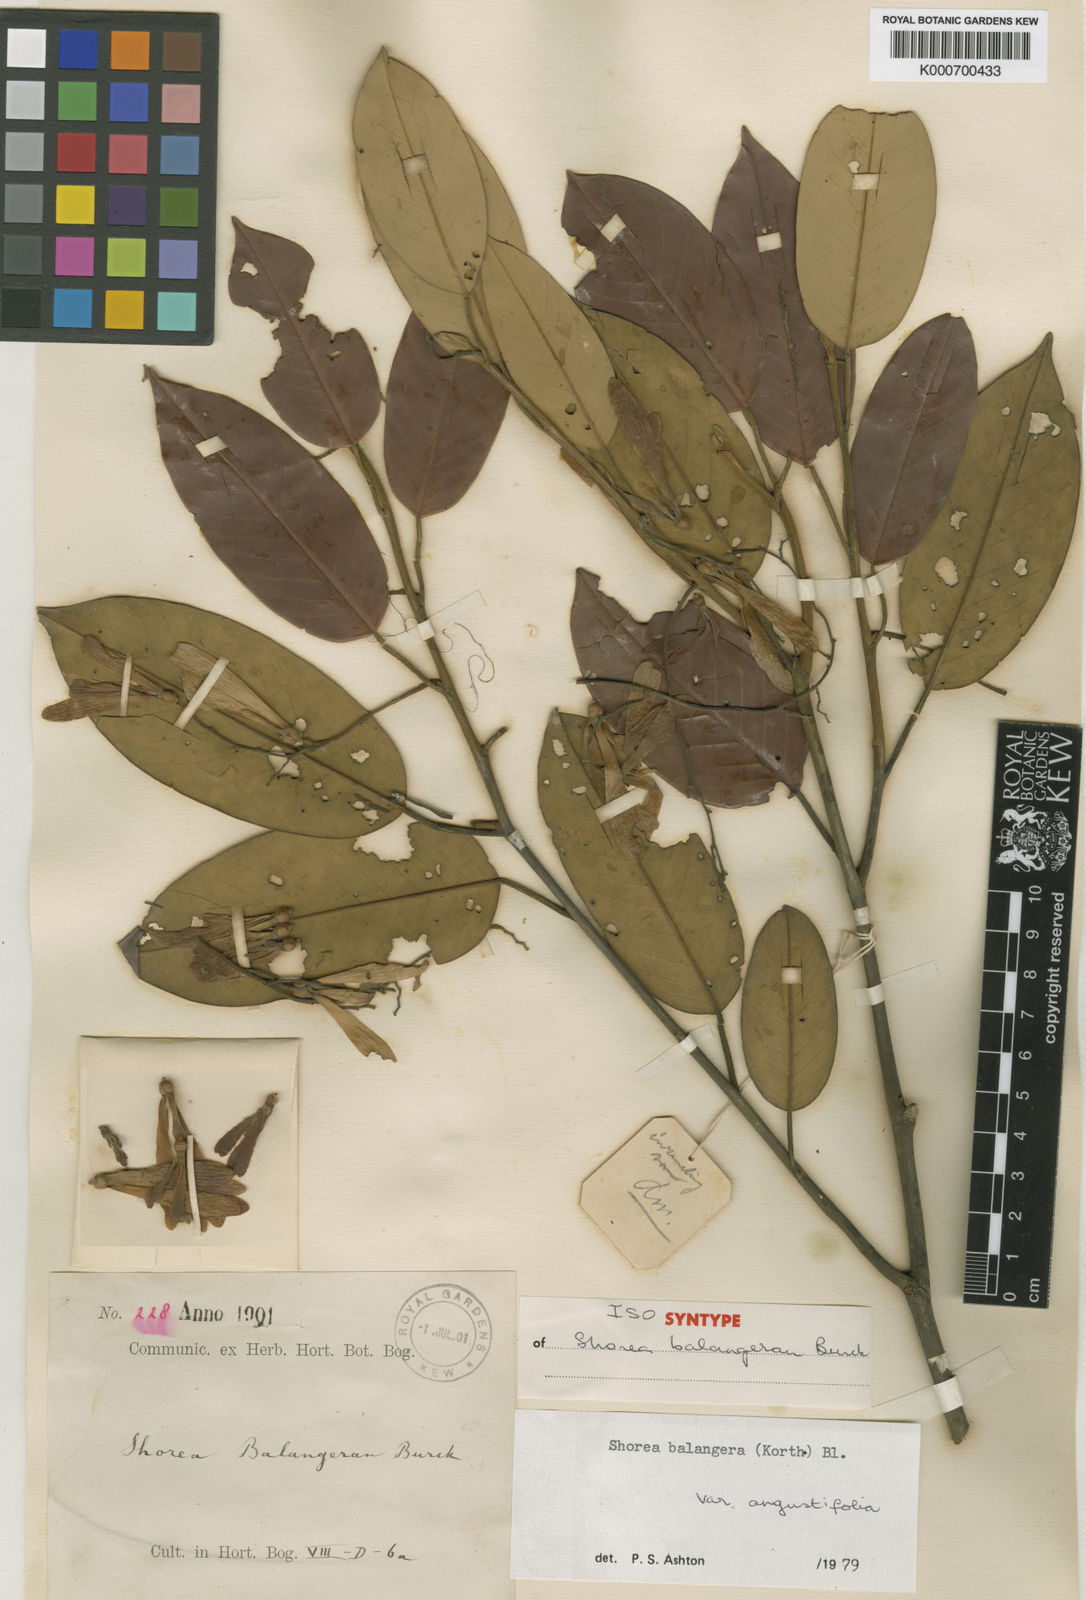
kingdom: Plantae
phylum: Tracheophyta
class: Magnoliopsida
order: Malvales
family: Dipterocarpaceae
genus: Shorea
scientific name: Shorea
